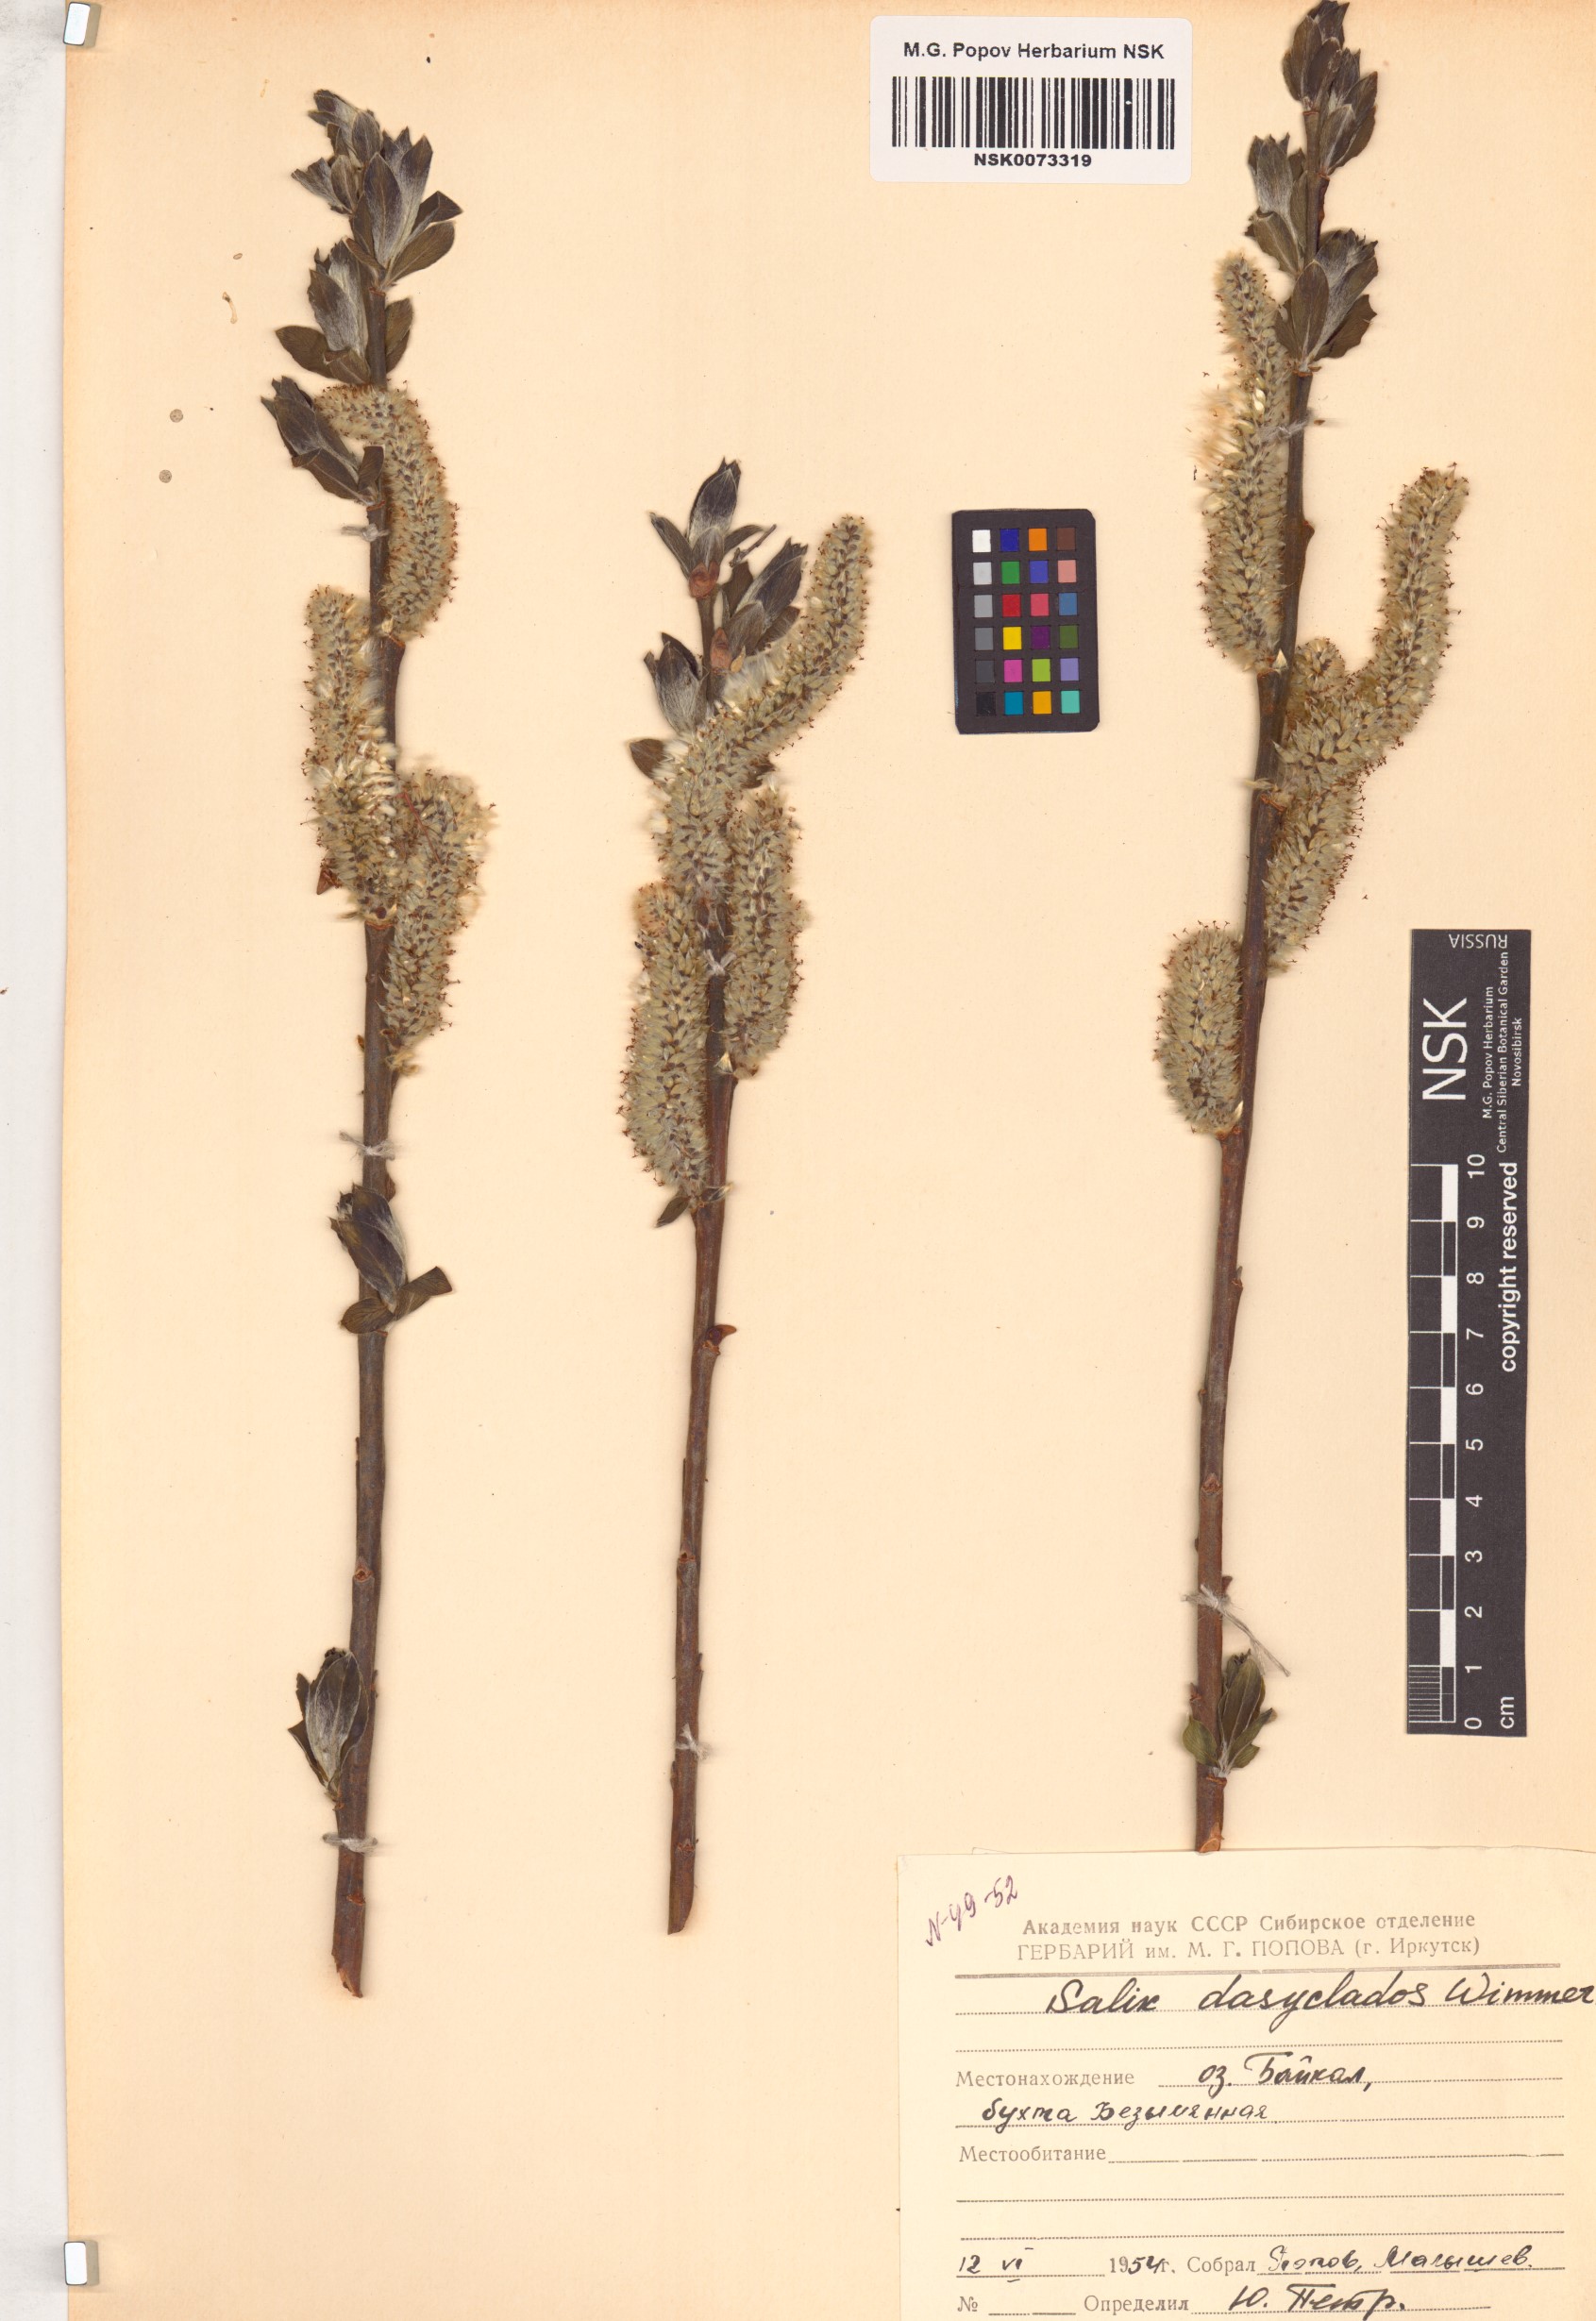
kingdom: Plantae
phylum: Tracheophyta
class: Magnoliopsida
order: Malpighiales
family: Salicaceae
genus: Salix
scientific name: Salix gmelinii
